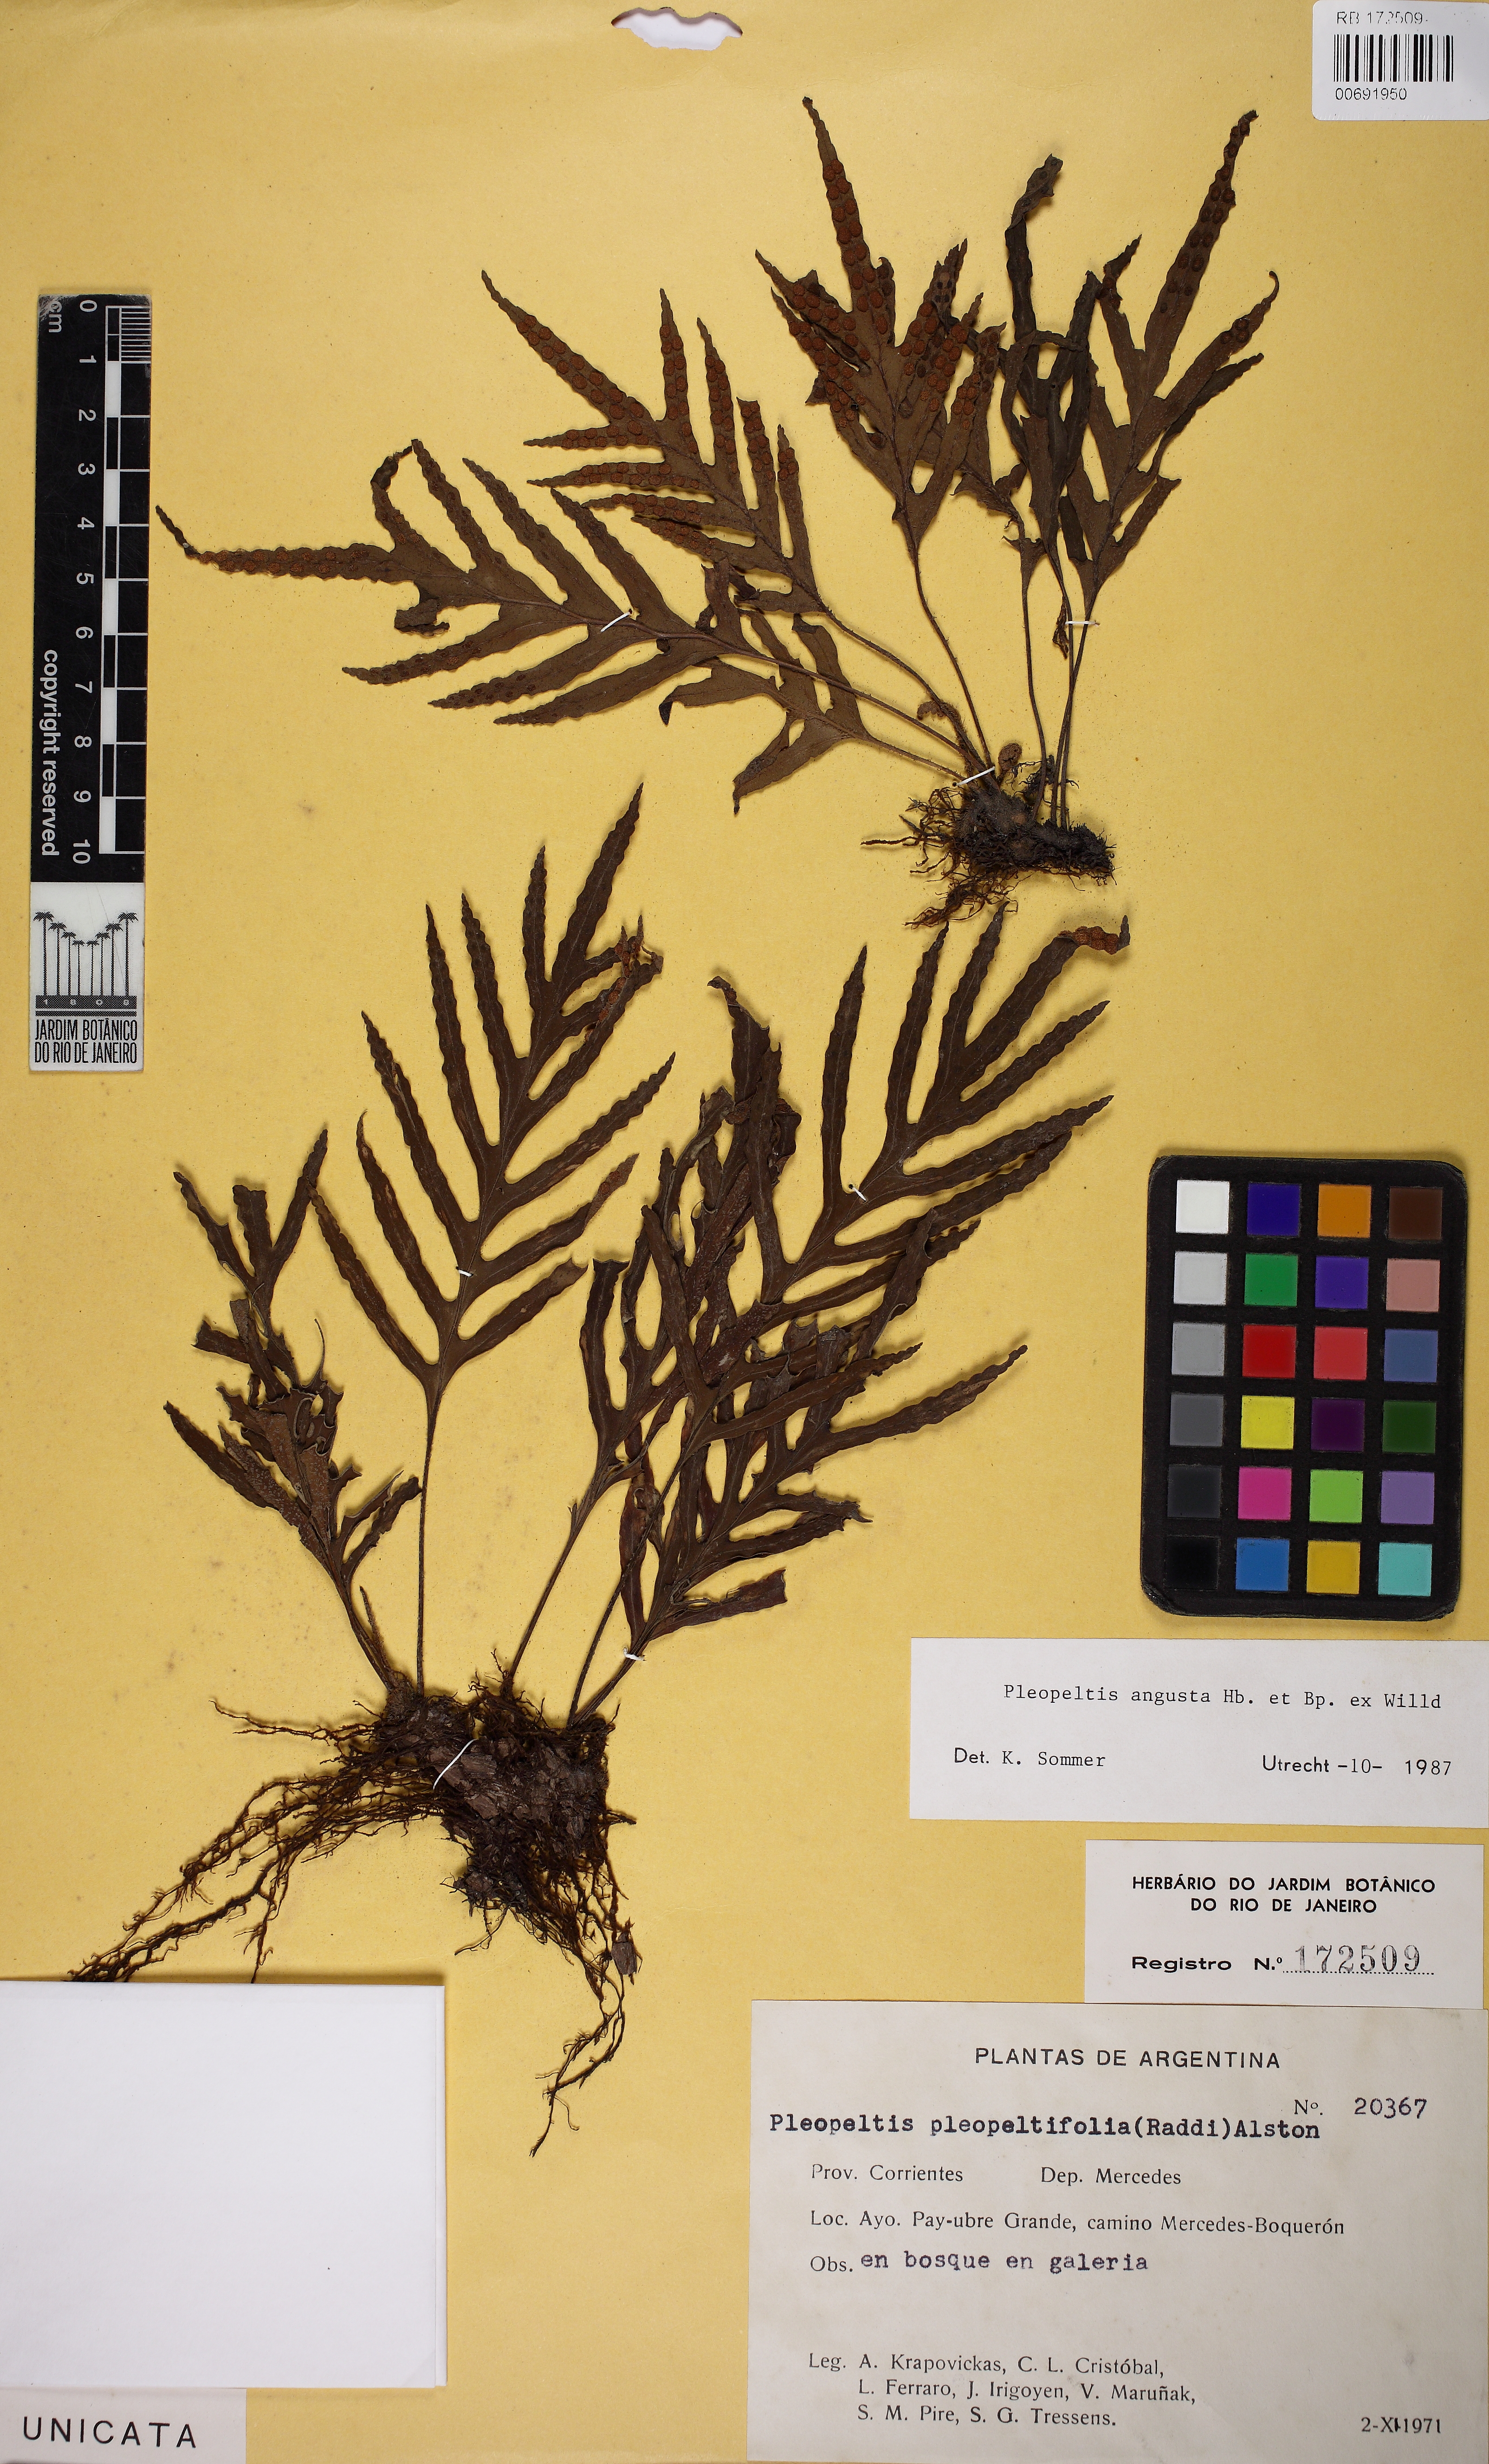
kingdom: Plantae
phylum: Tracheophyta
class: Polypodiopsida
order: Polypodiales
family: Polypodiaceae
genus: Pleopeltis
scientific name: Pleopeltis pleopeltifolia
